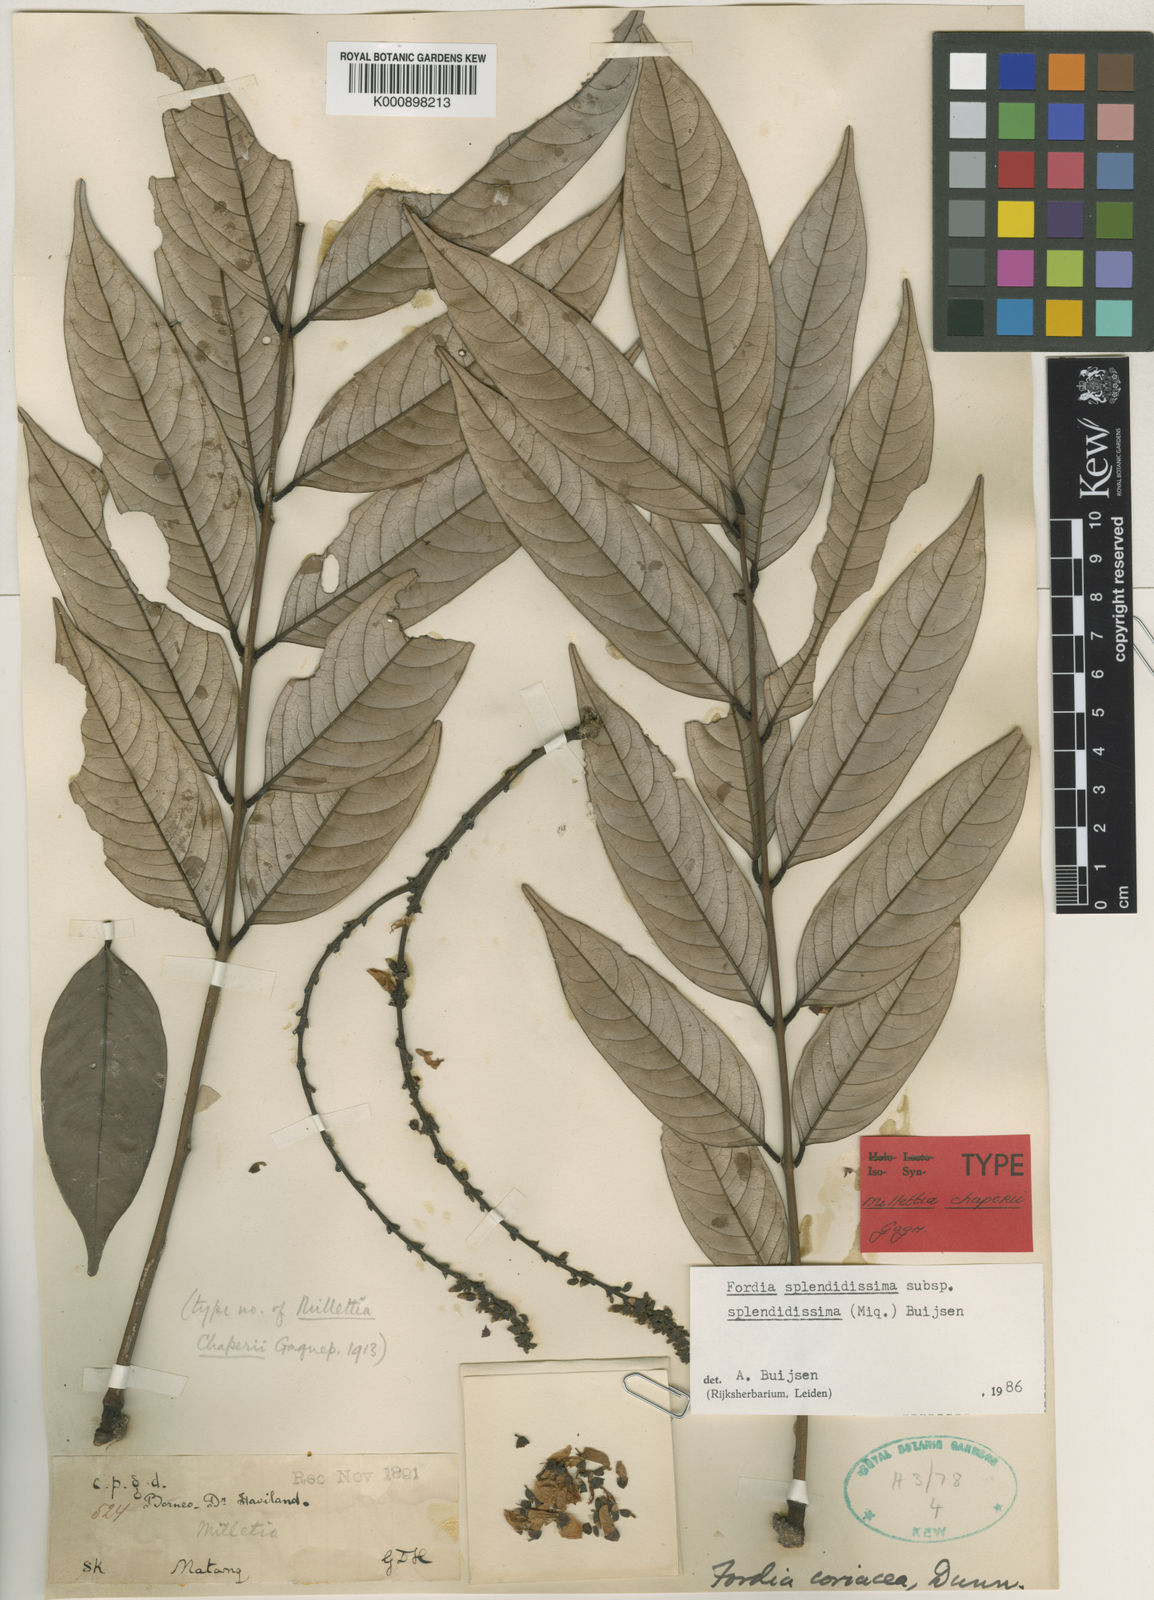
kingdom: Plantae
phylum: Tracheophyta
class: Magnoliopsida
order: Fabales
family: Fabaceae
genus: Fordia
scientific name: Fordia splendidissima
